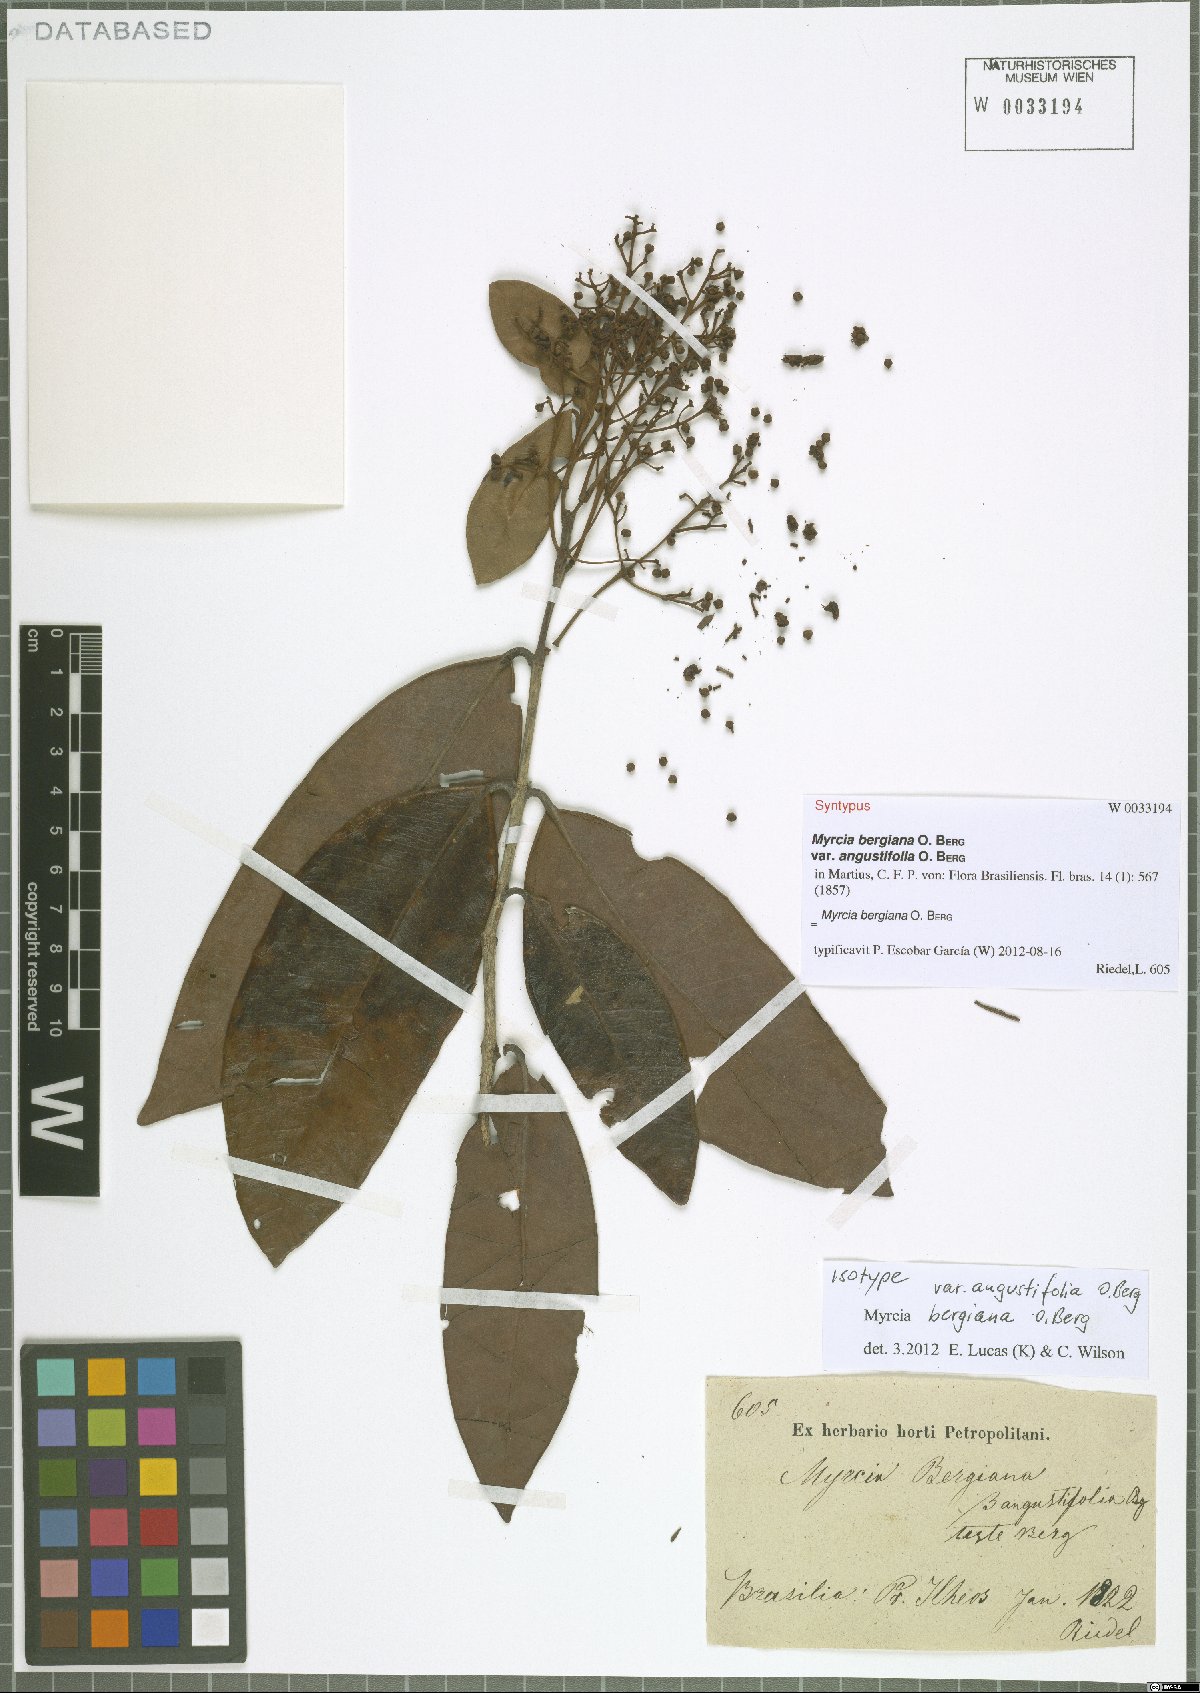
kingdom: Plantae
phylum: Tracheophyta
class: Magnoliopsida
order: Myrtales
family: Myrtaceae
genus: Myrcia
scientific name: Myrcia bergiana
